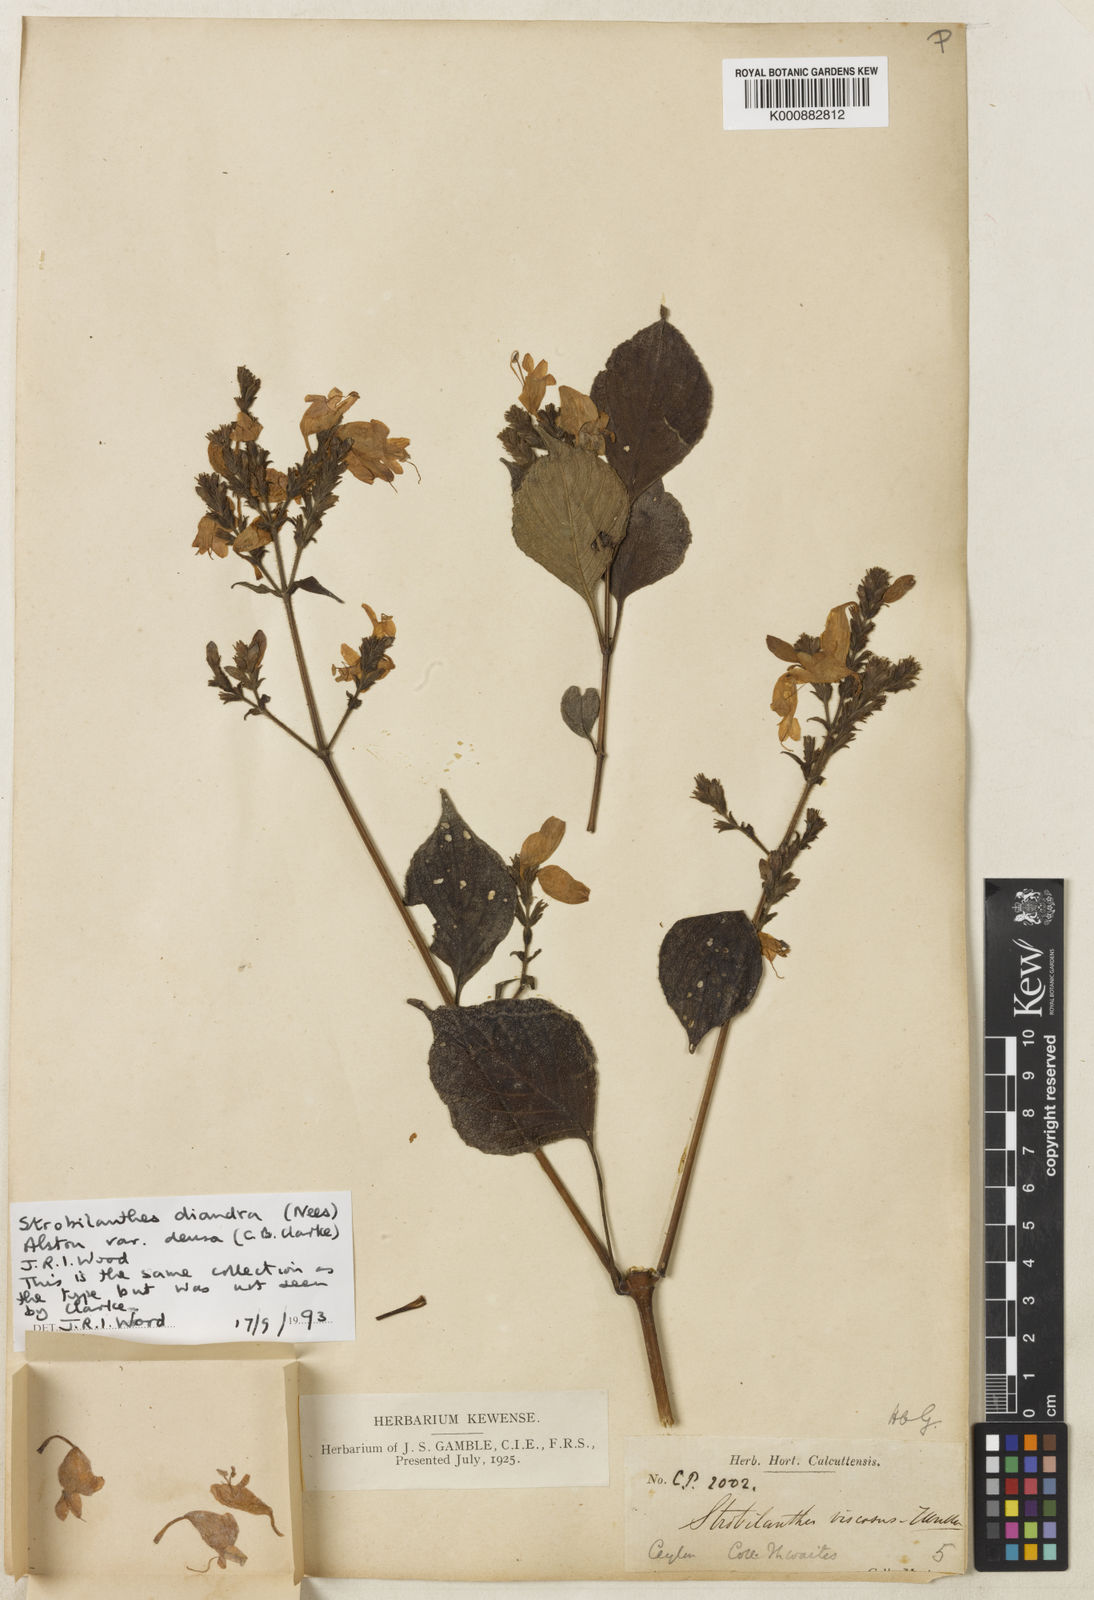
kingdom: Plantae
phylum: Tracheophyta
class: Magnoliopsida
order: Lamiales
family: Acanthaceae
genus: Strobilanthes
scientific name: Strobilanthes diandra
